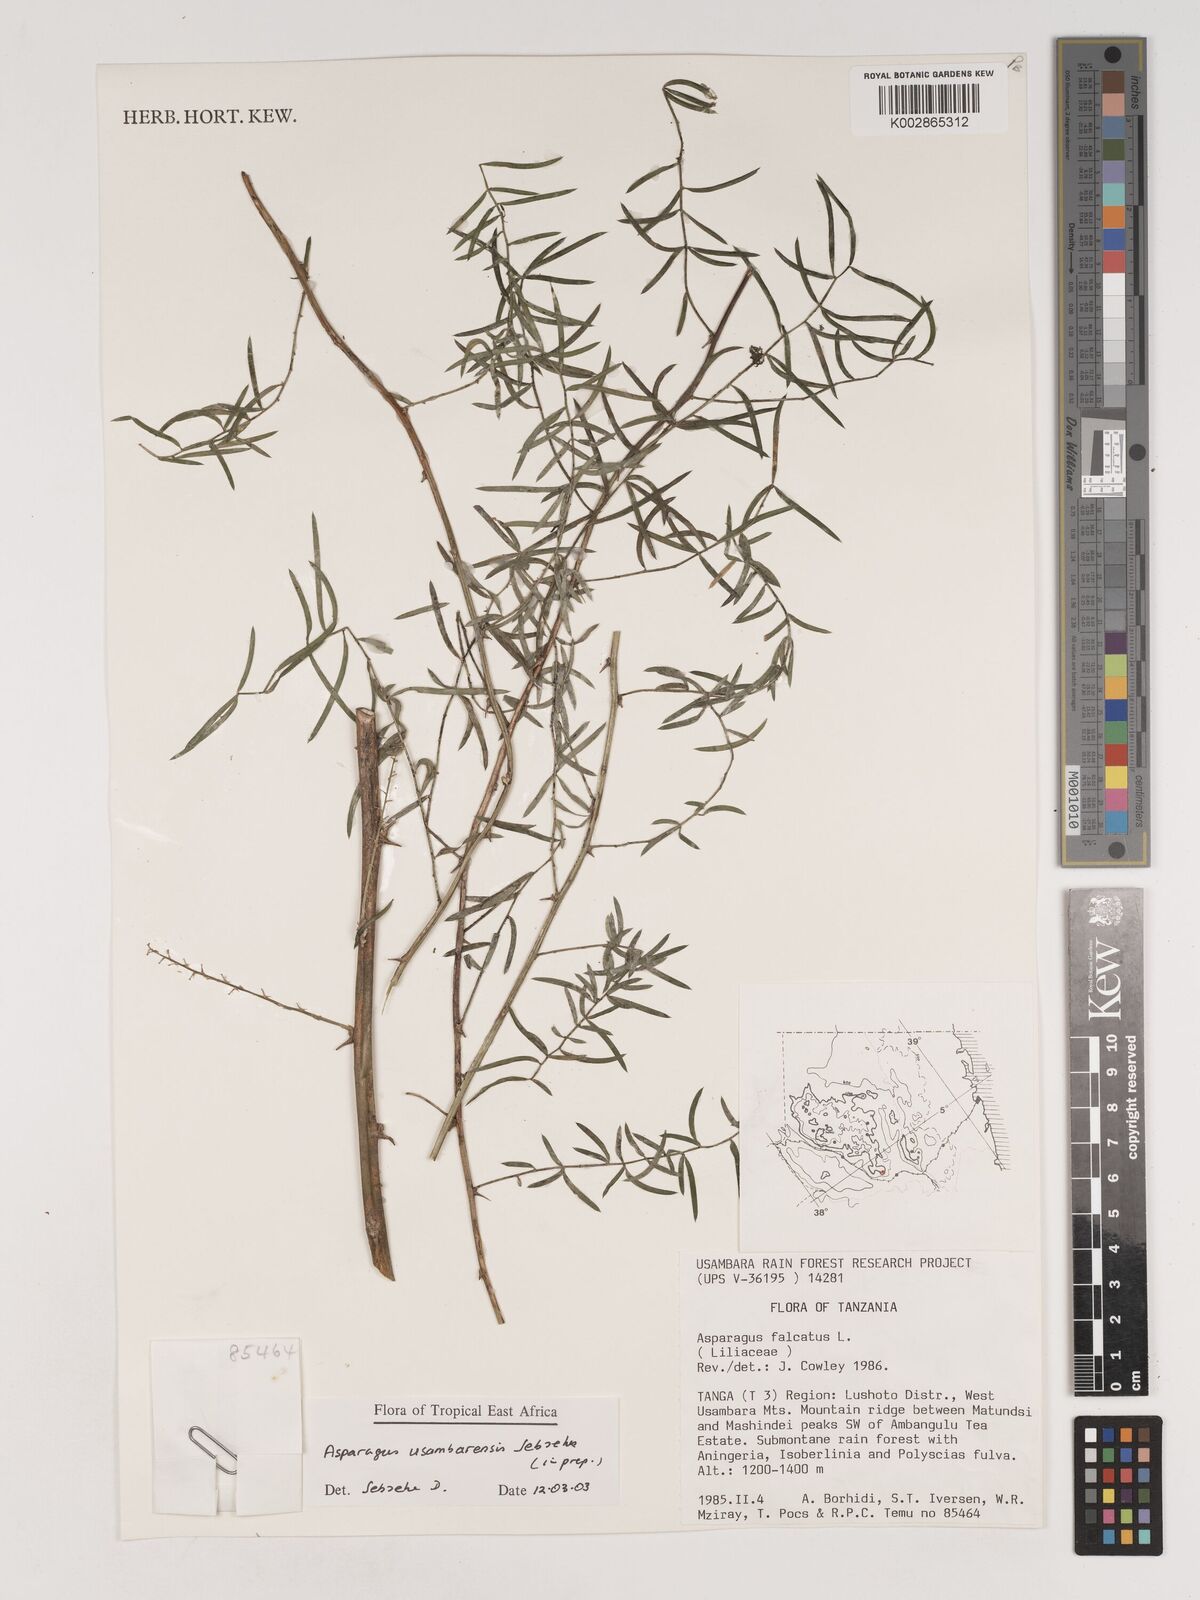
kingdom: Plantae
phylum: Tracheophyta
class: Liliopsida
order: Asparagales
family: Asparagaceae
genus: Asparagus
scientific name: Asparagus usambarensis
